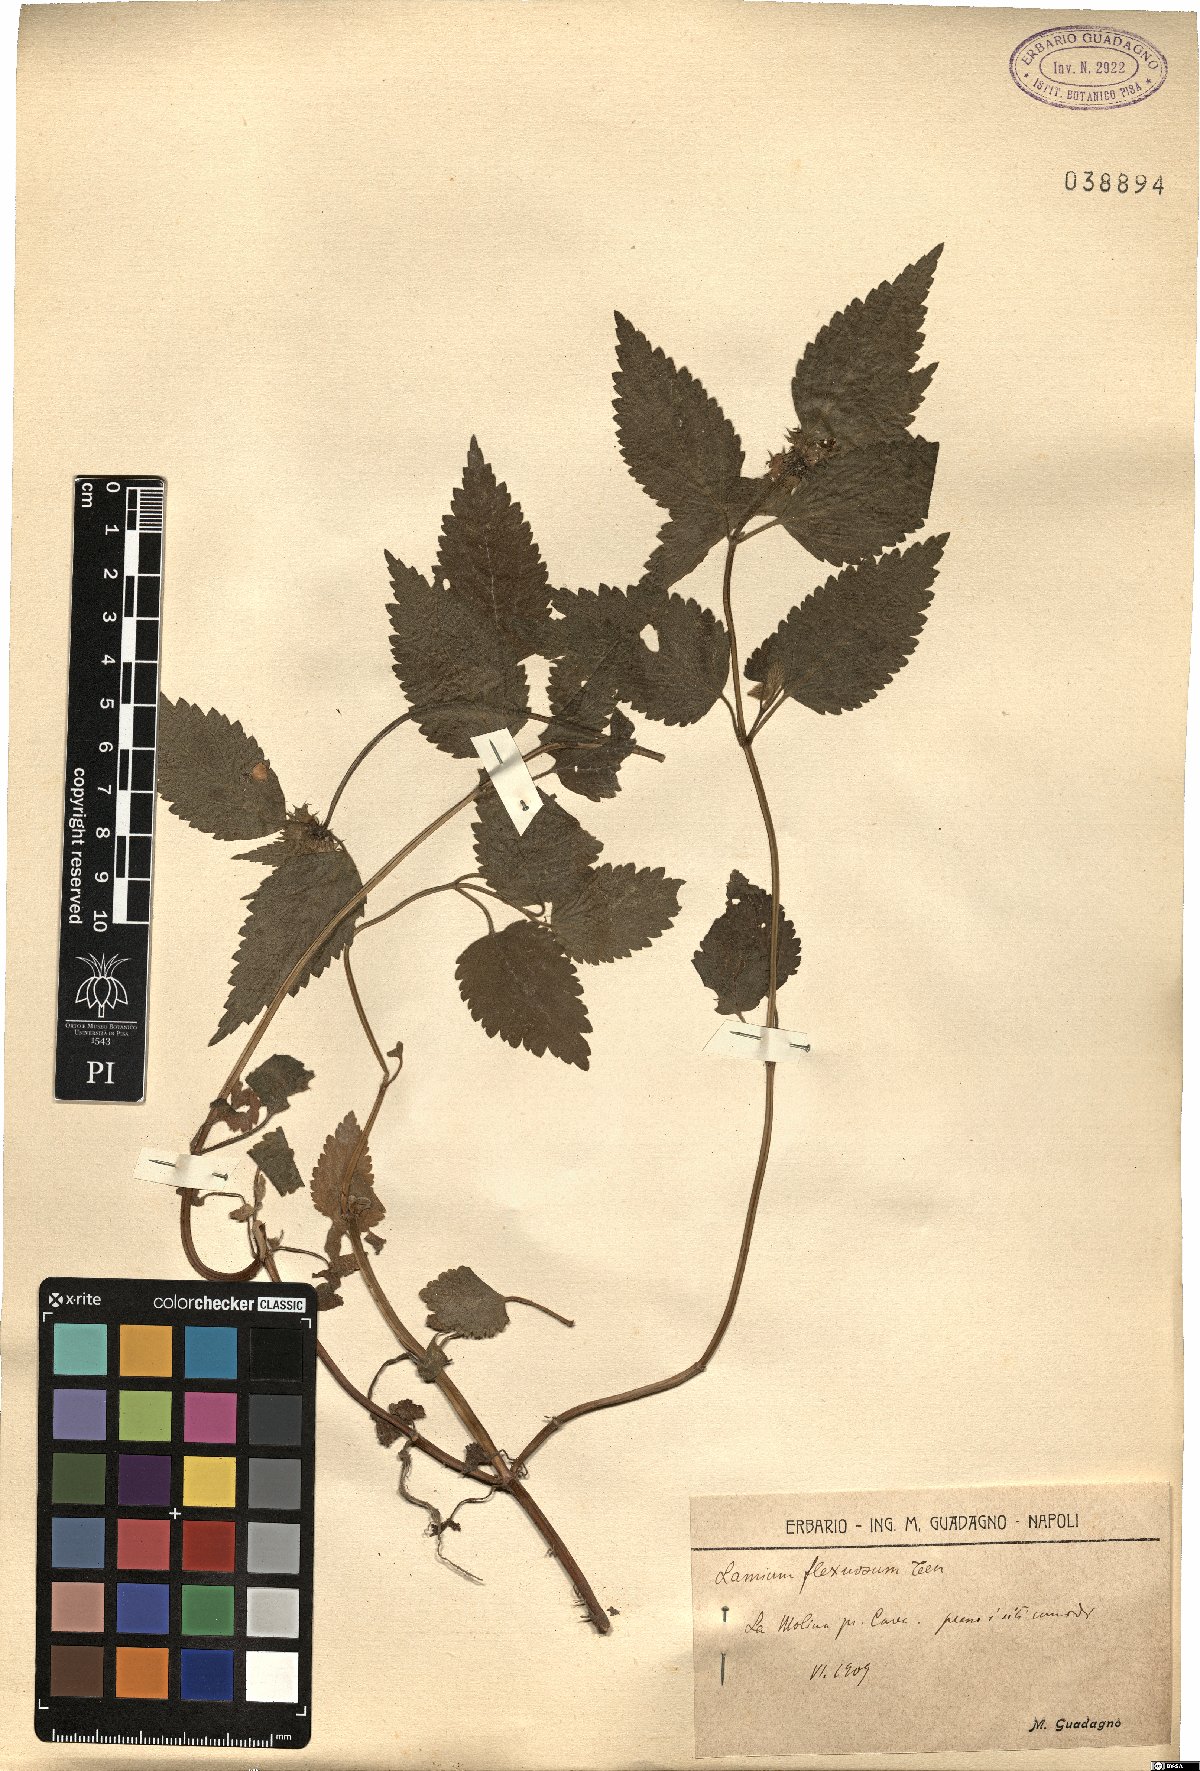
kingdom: Plantae
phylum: Tracheophyta
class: Magnoliopsida
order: Lamiales
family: Lamiaceae
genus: Lamium
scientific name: Lamium flexuosum
